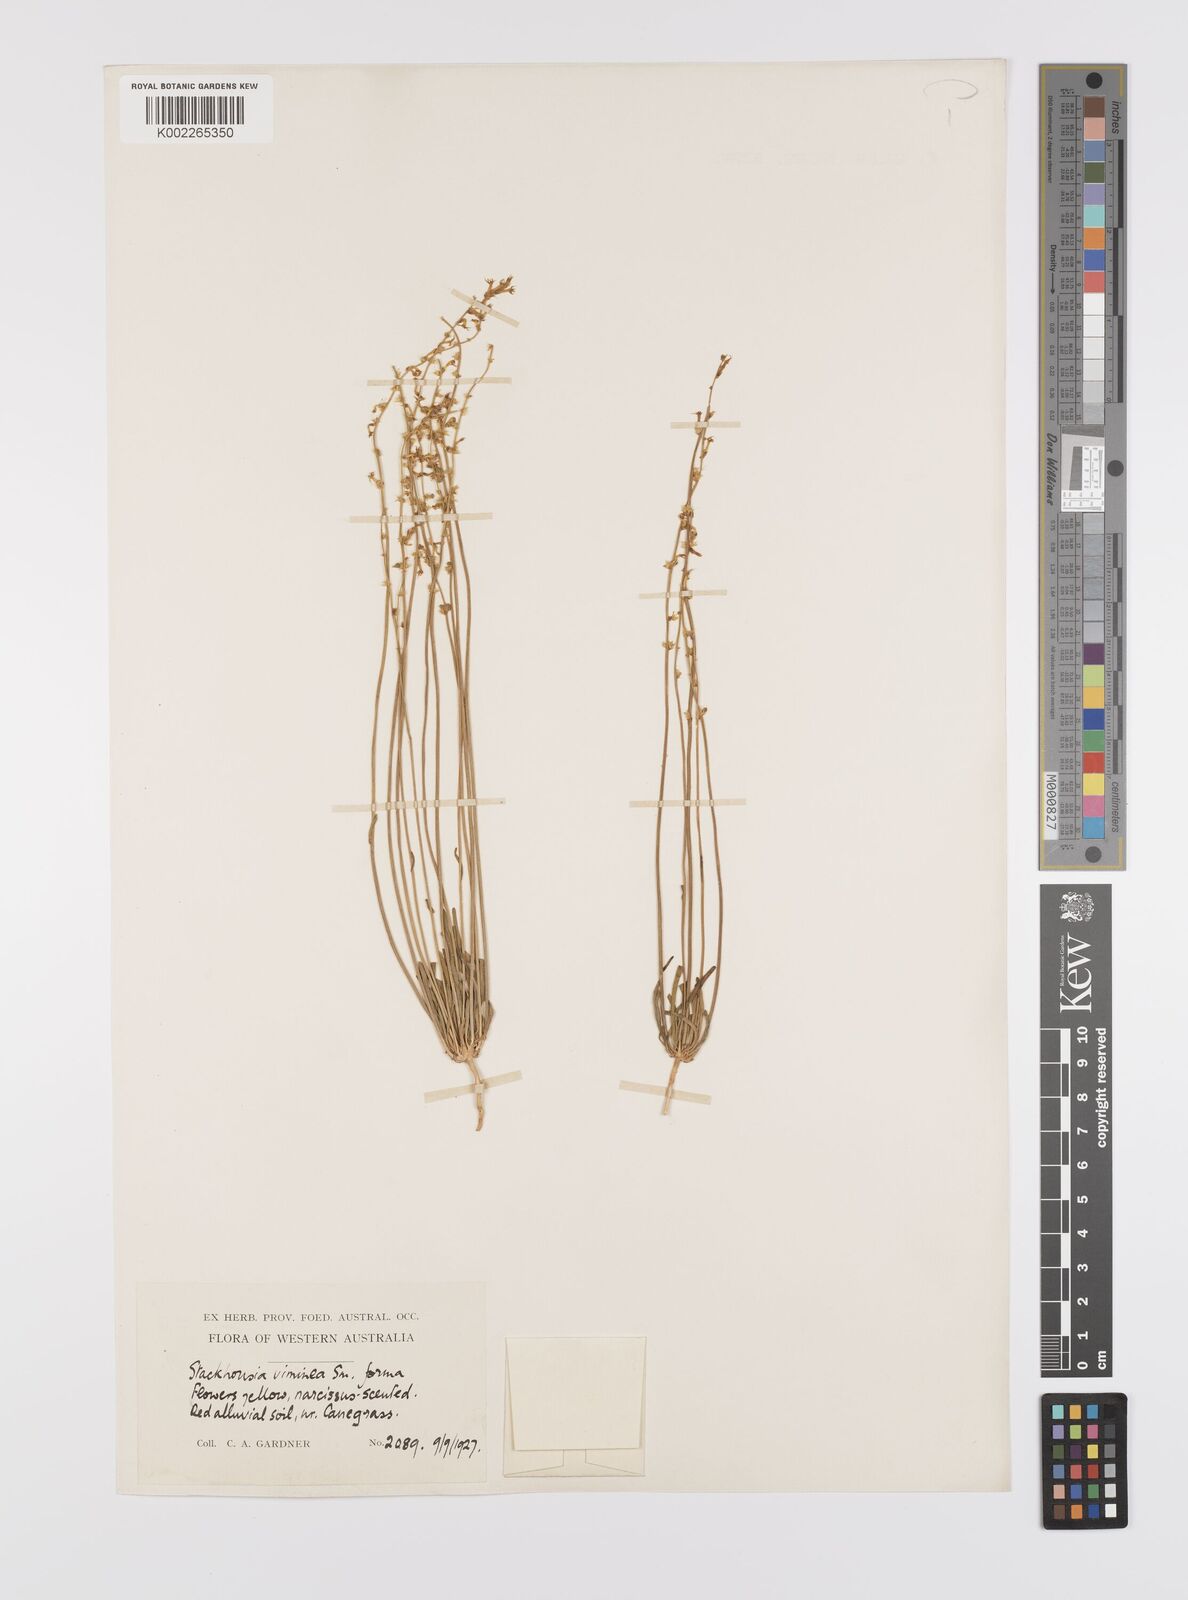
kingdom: Plantae
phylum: Tracheophyta
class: Magnoliopsida
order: Celastrales
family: Celastraceae
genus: Stackhousia
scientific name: Stackhousia muricata
